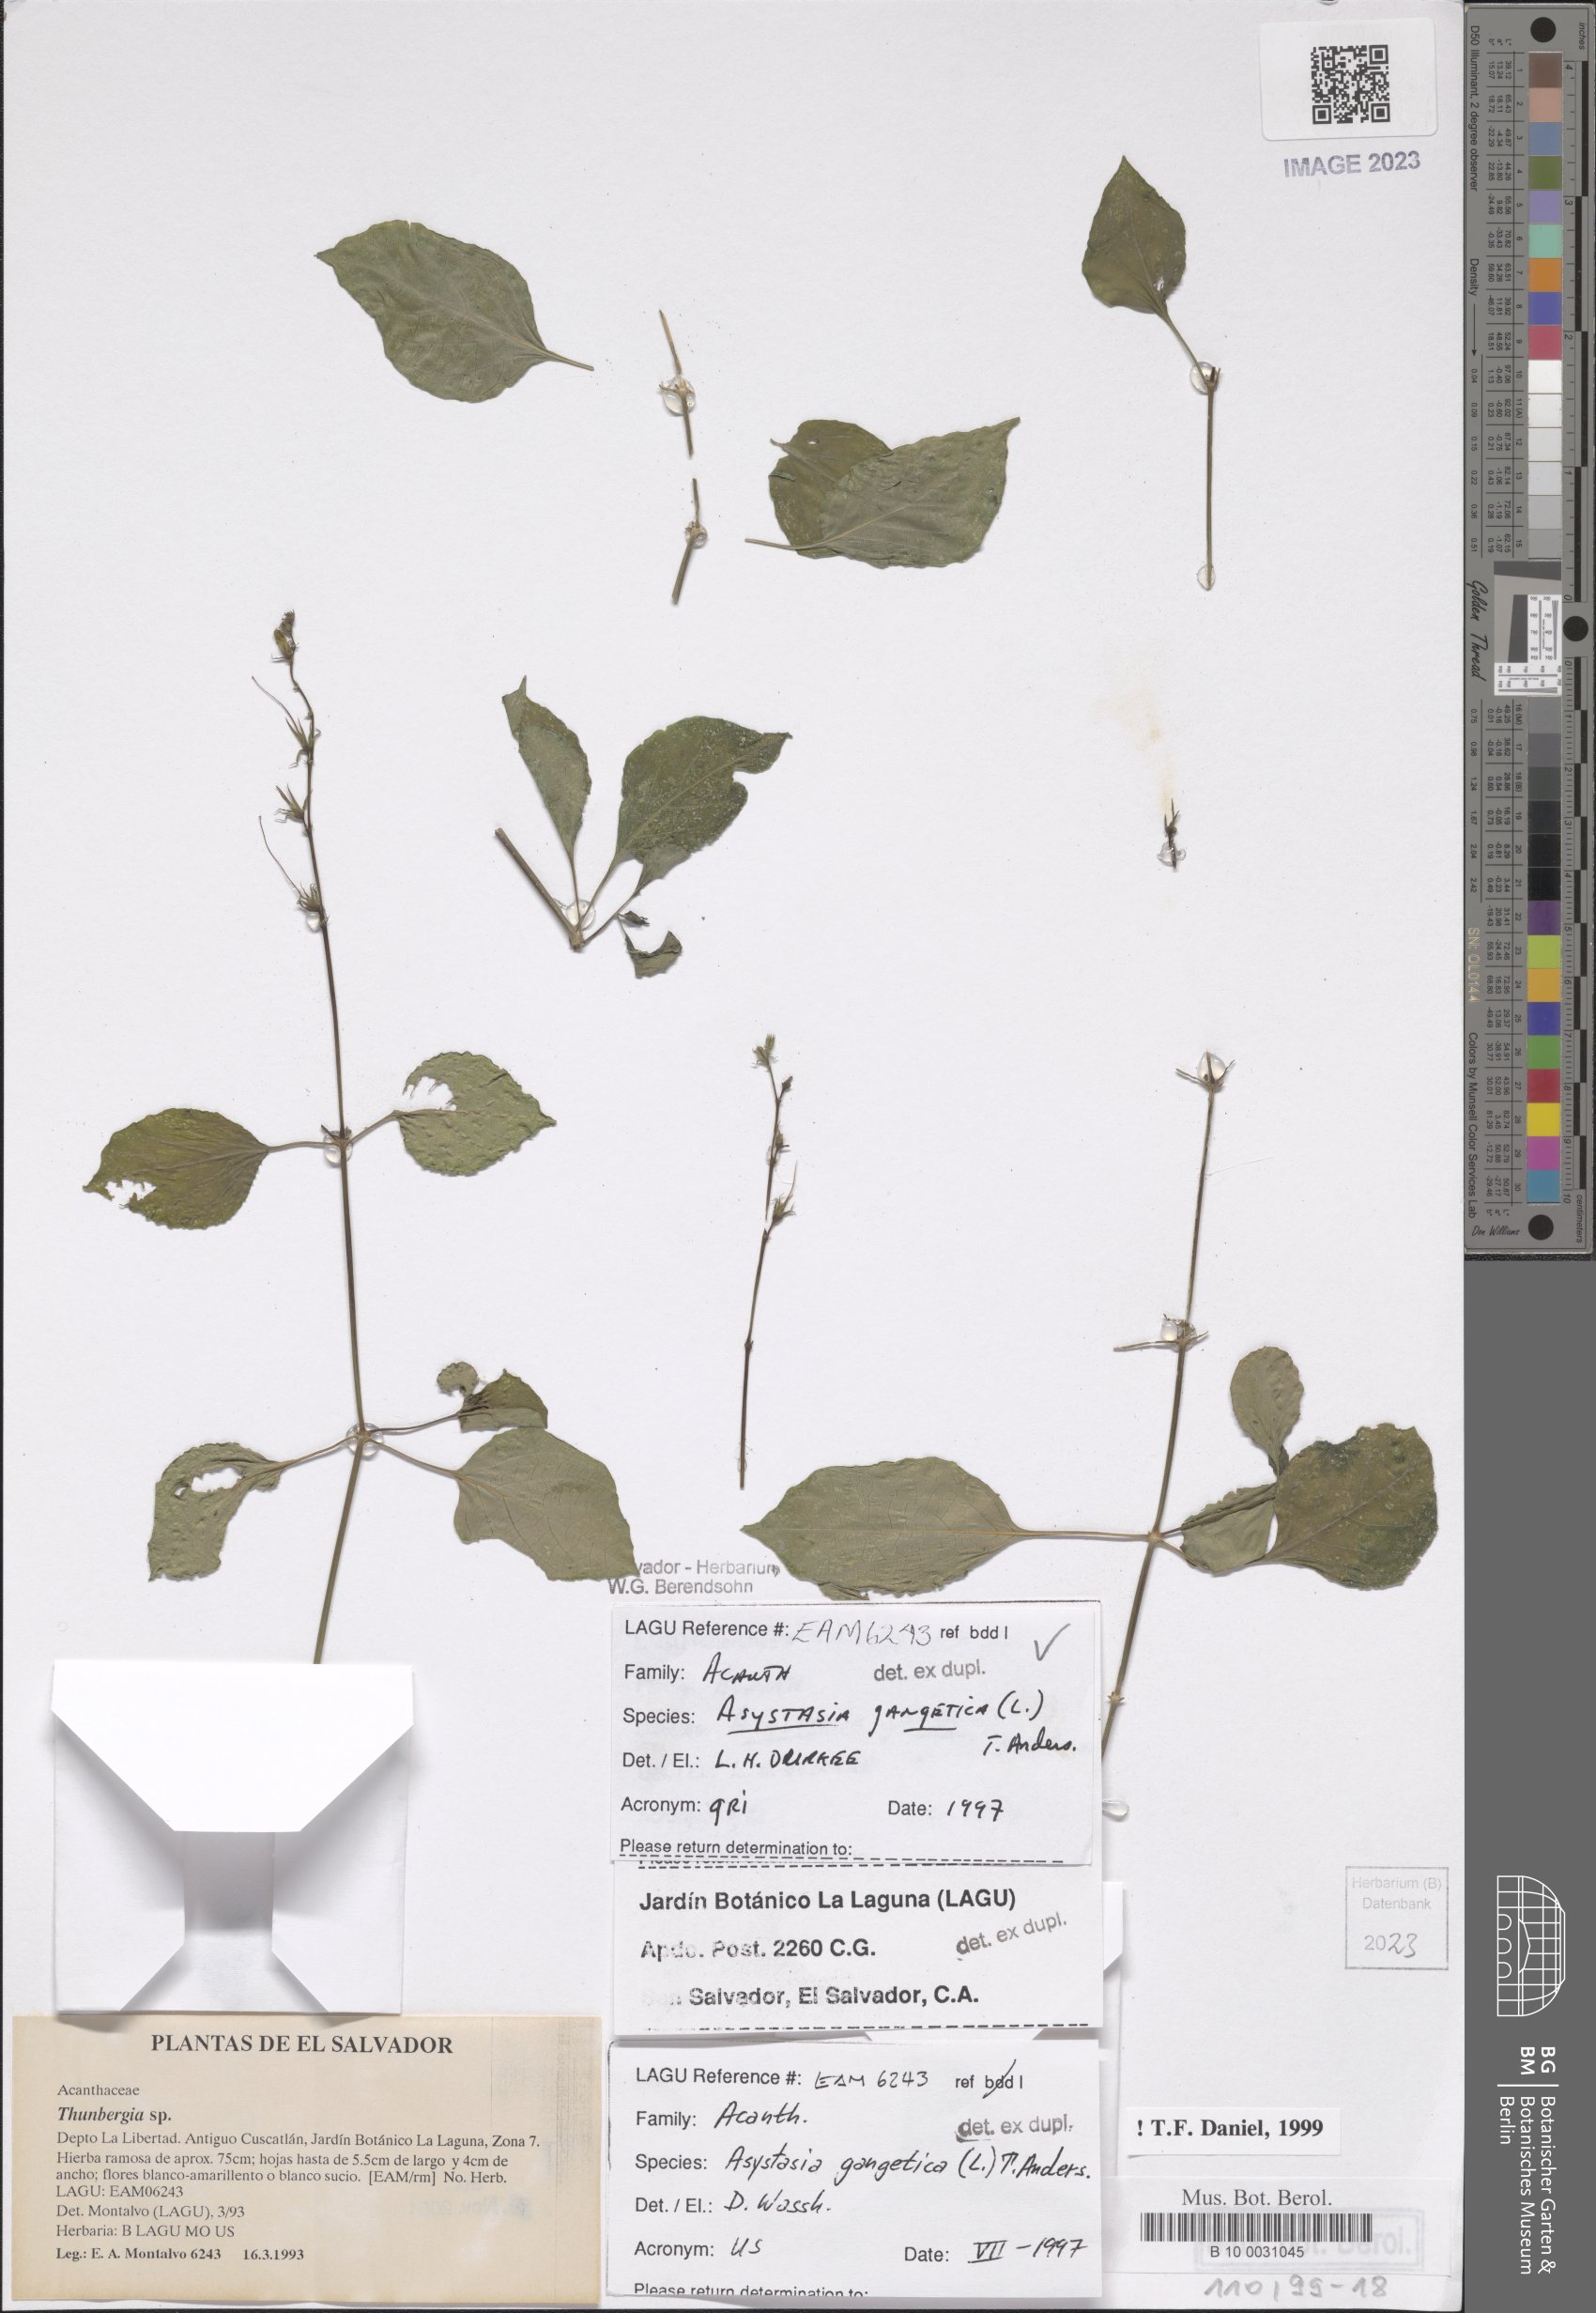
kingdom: Plantae
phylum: Tracheophyta
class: Magnoliopsida
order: Lamiales
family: Acanthaceae
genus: Asystasia
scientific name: Asystasia gangetica
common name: Chinese violet
